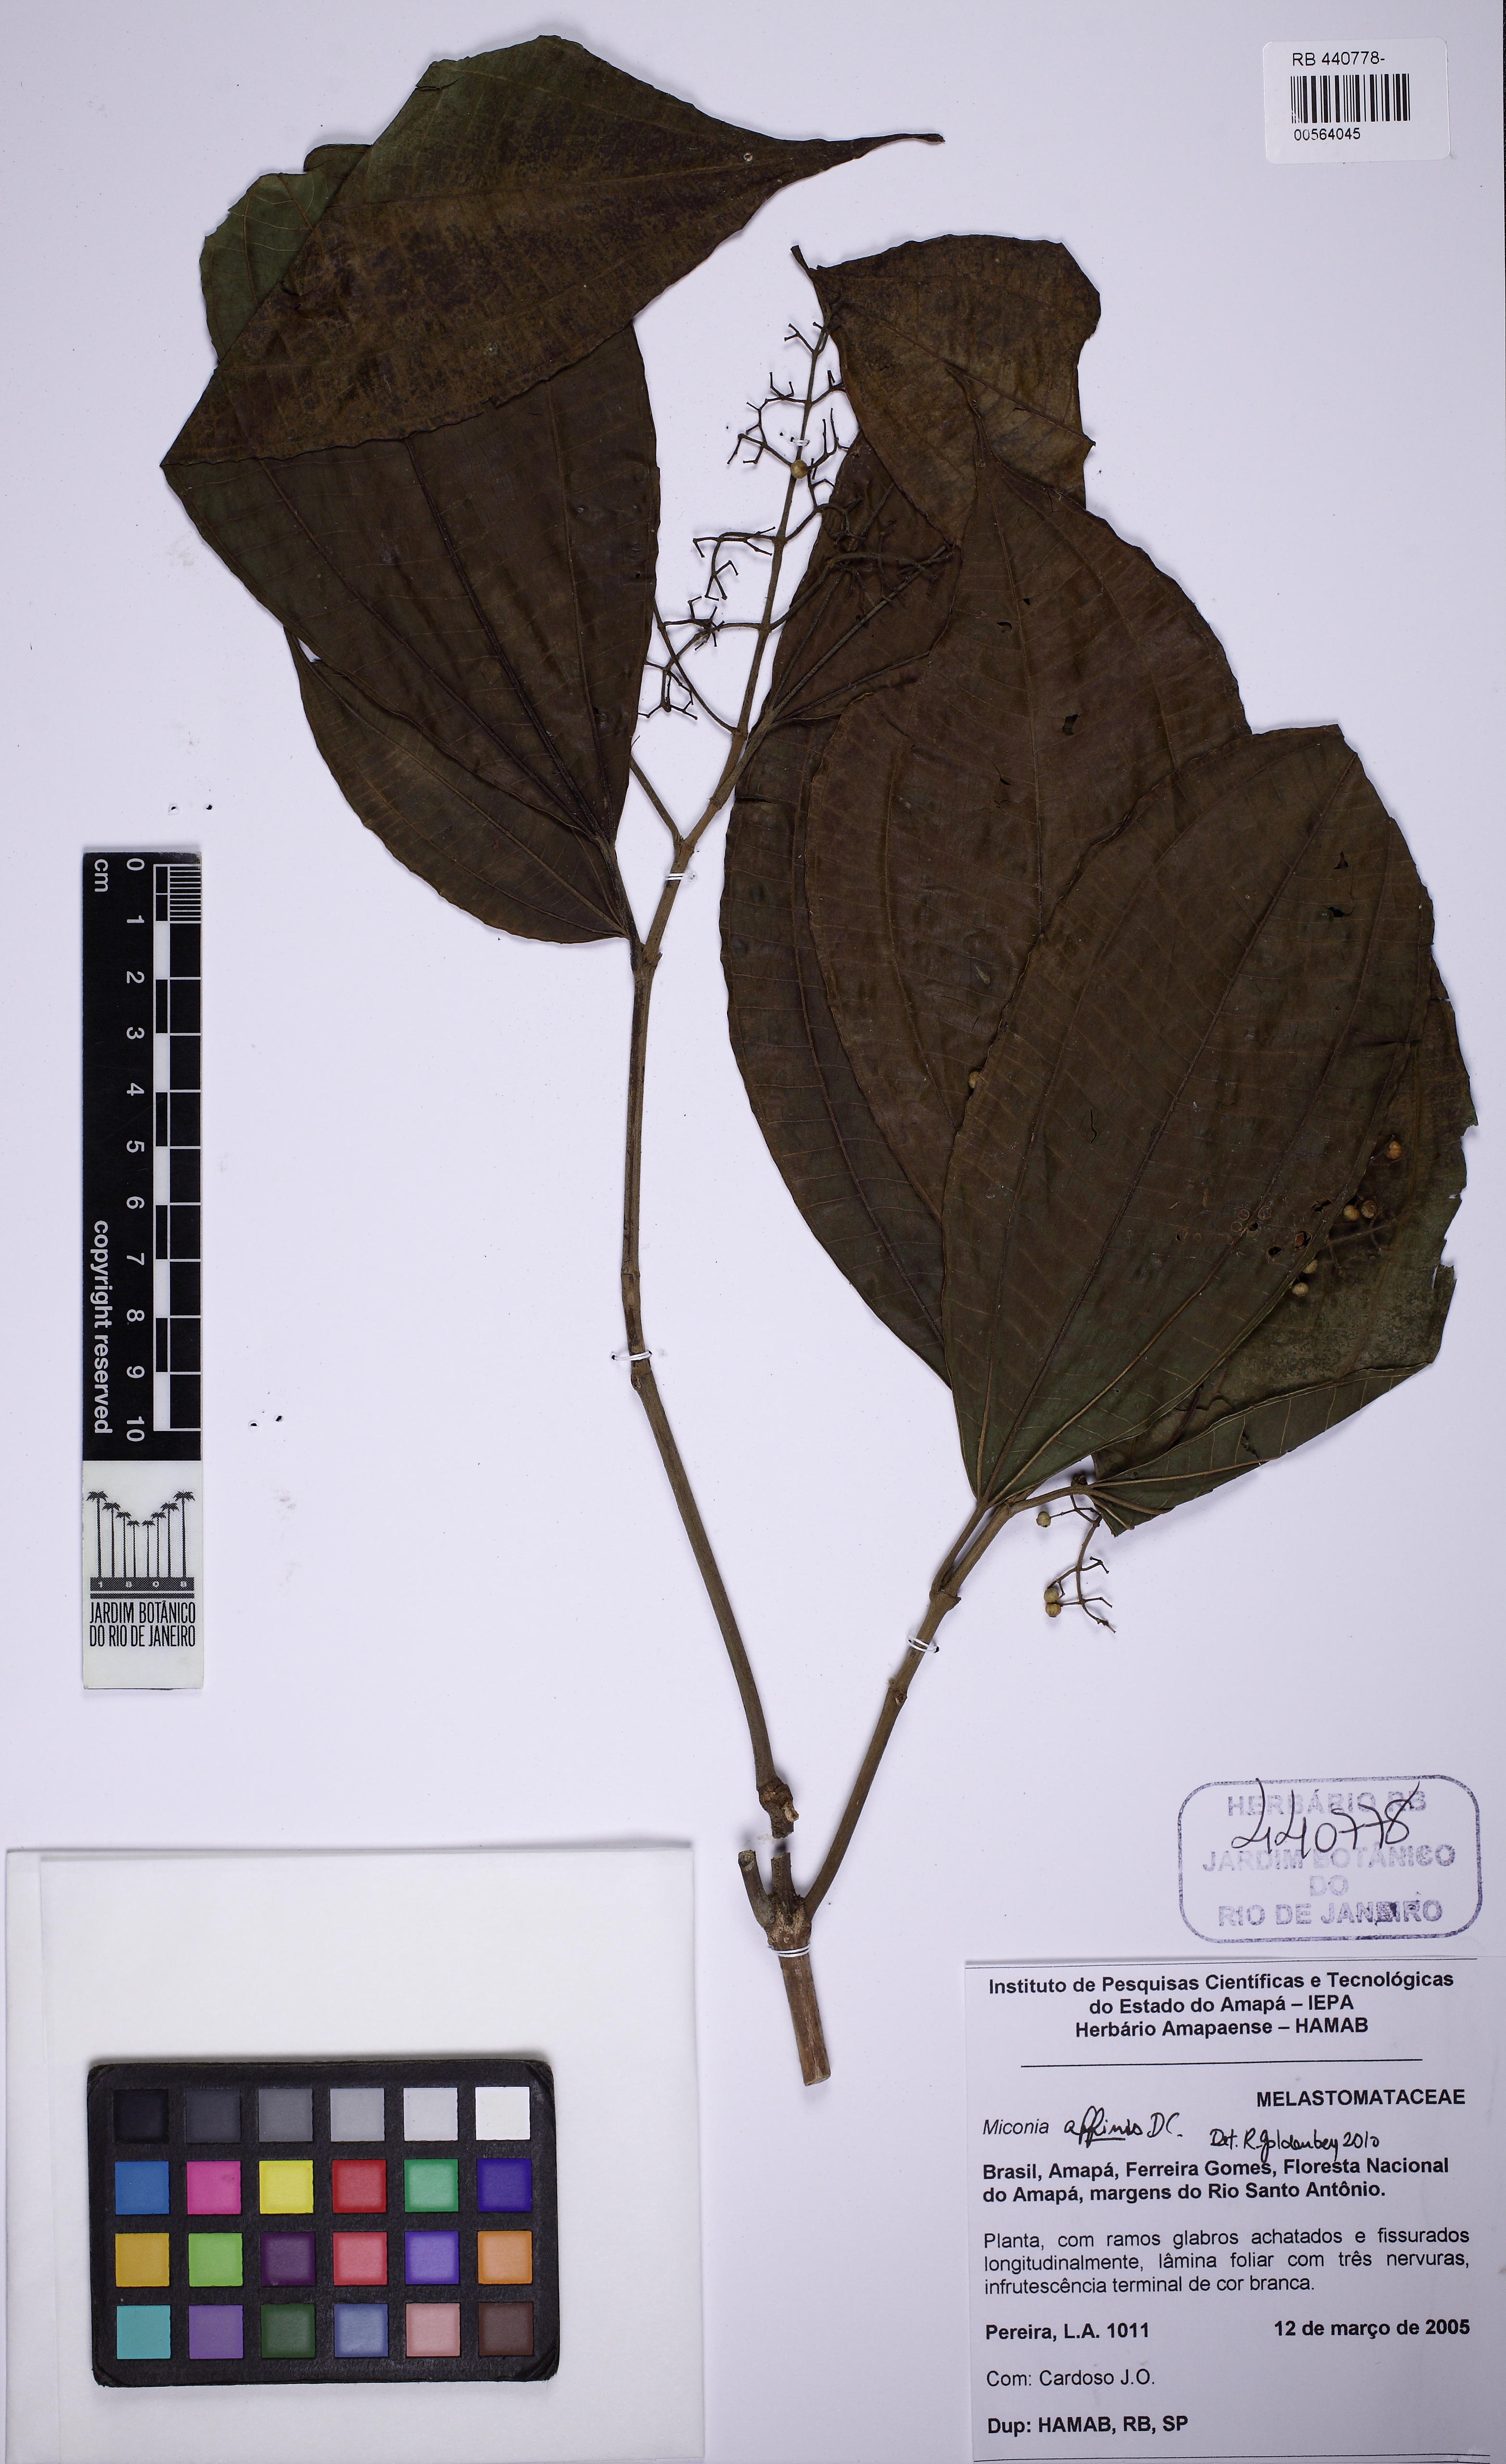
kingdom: Plantae
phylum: Tracheophyta
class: Magnoliopsida
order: Myrtales
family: Melastomataceae
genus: Miconia
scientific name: Miconia affinis
